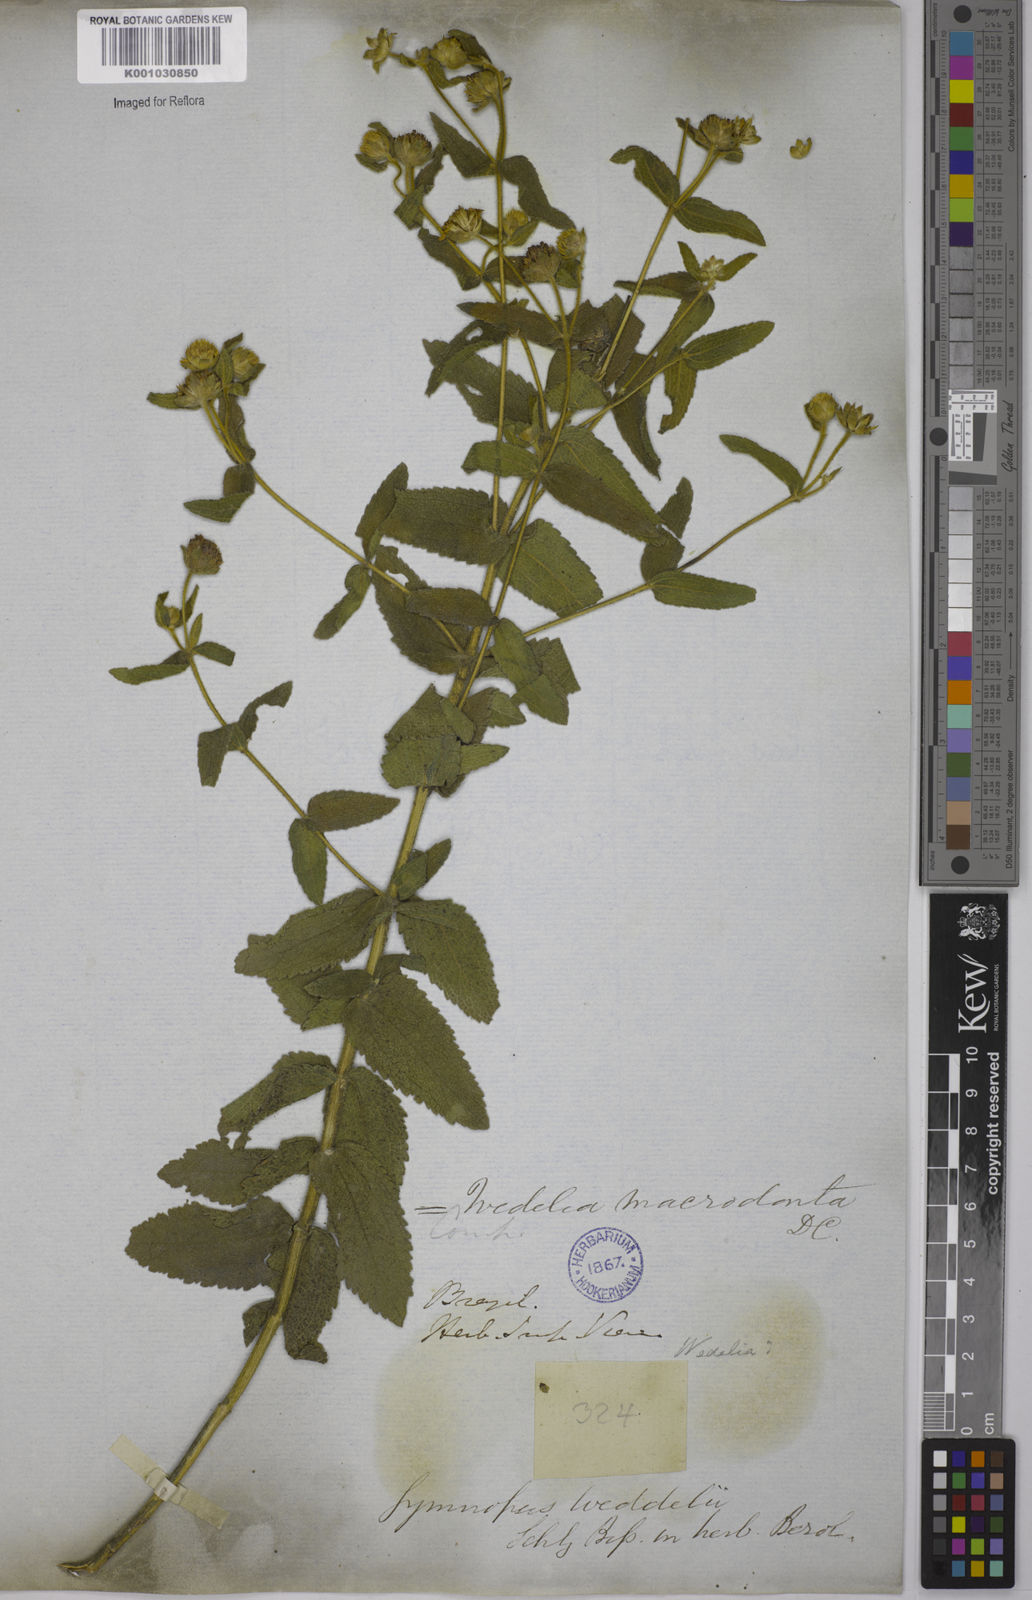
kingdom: Plantae
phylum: Tracheophyta
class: Magnoliopsida
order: Asterales
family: Asteraceae
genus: Wedelia
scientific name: Wedelia macrodonta
